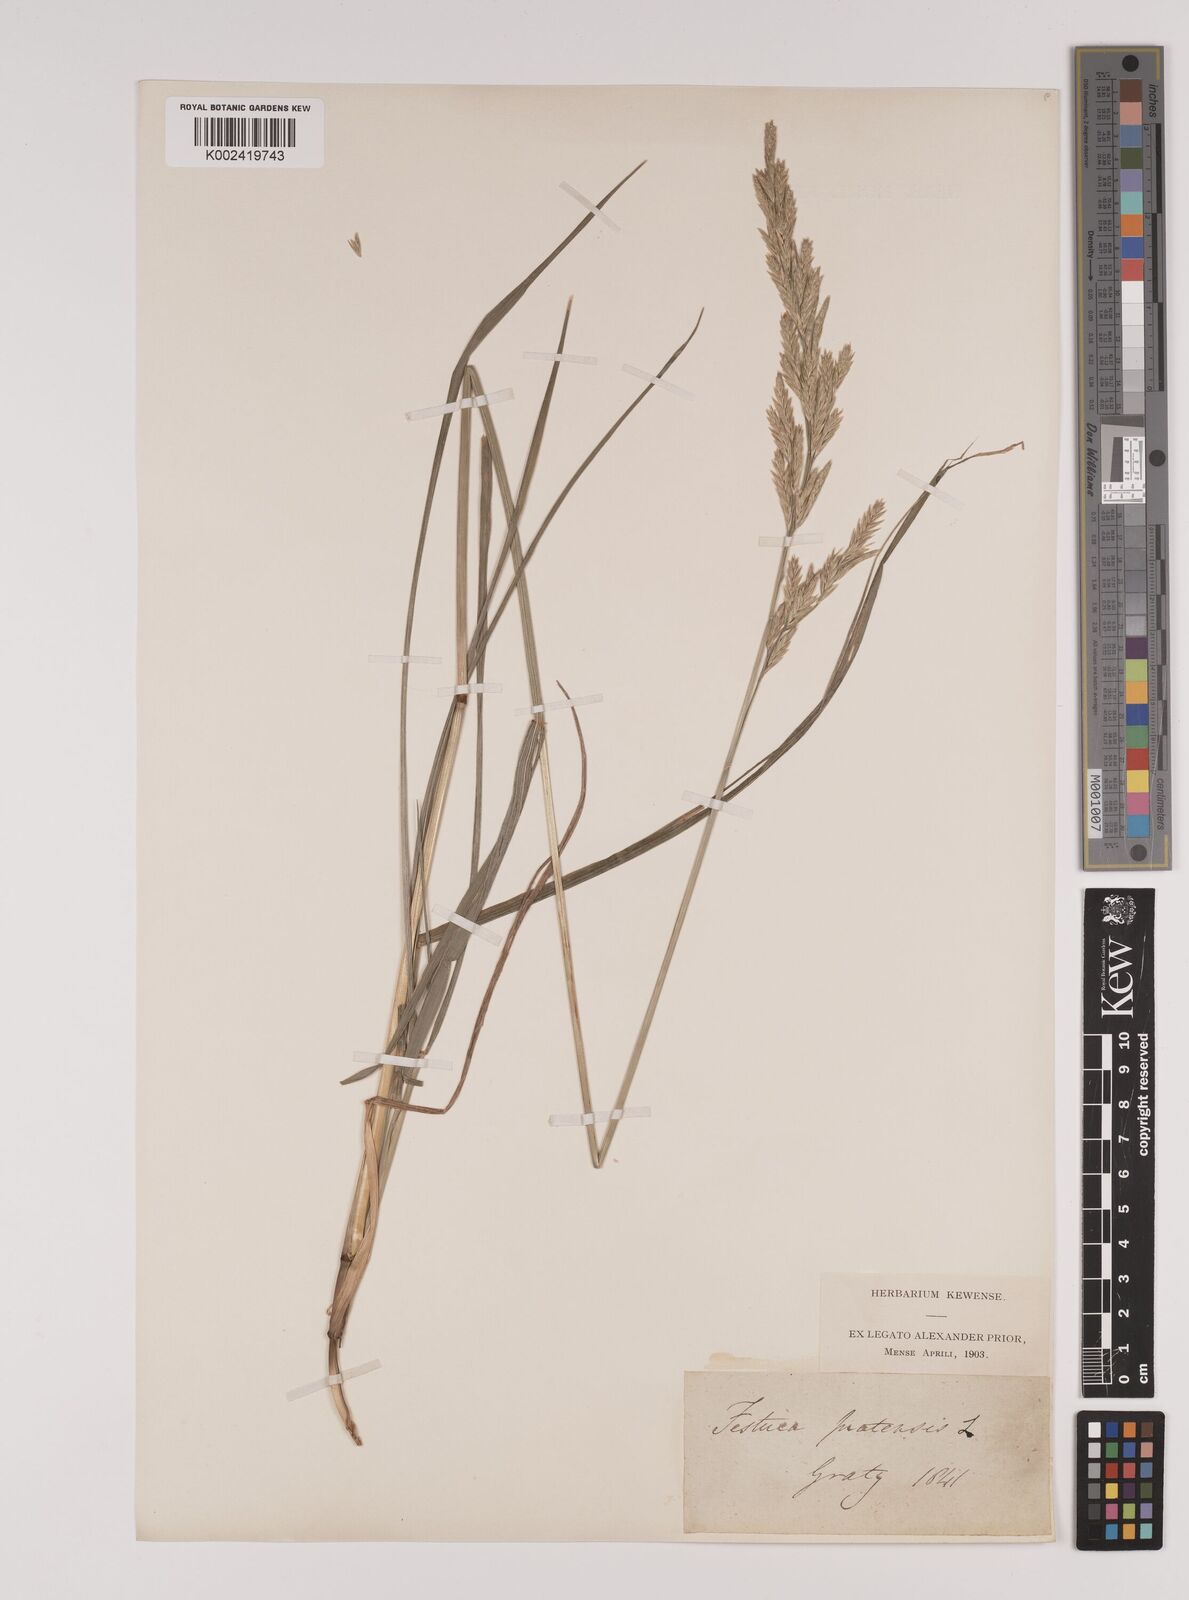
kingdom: Plantae
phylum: Tracheophyta
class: Liliopsida
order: Poales
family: Poaceae
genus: Lolium
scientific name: Lolium pratense
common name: Dover grass
